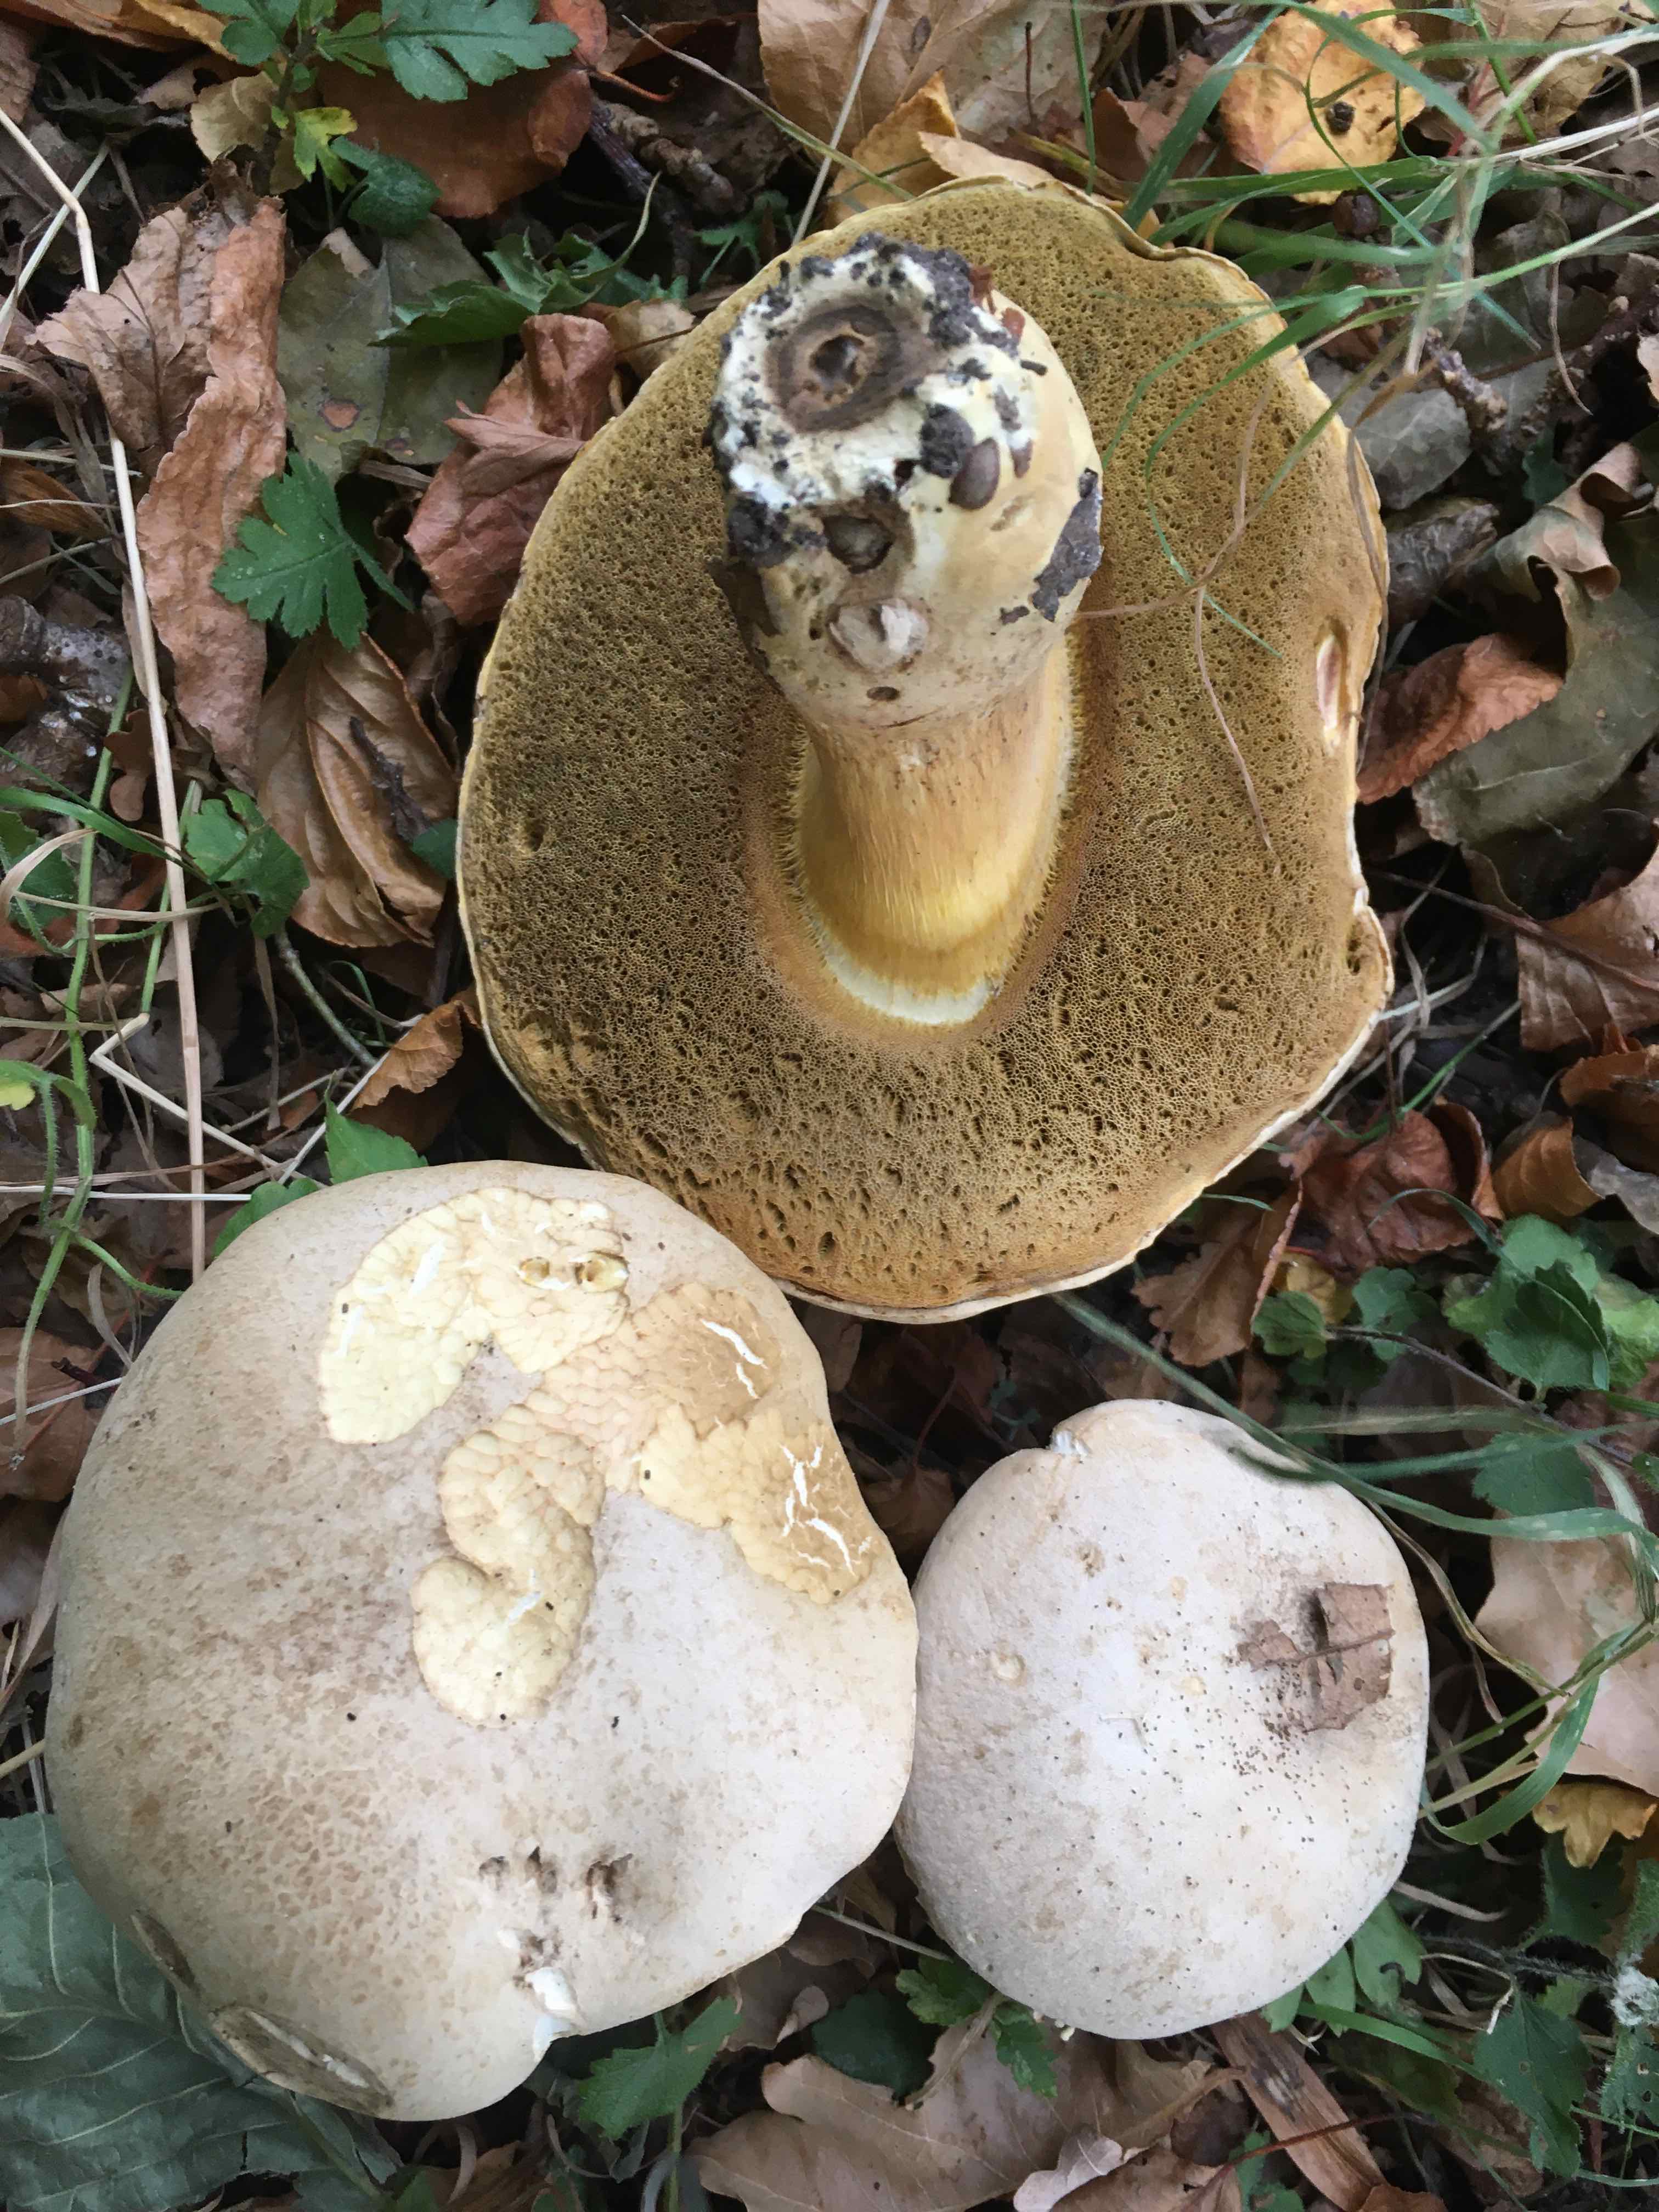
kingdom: Fungi
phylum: Basidiomycota
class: Agaricomycetes
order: Boletales
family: Boletaceae
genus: Caloboletus
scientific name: Caloboletus radicans
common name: rod-rørhat
